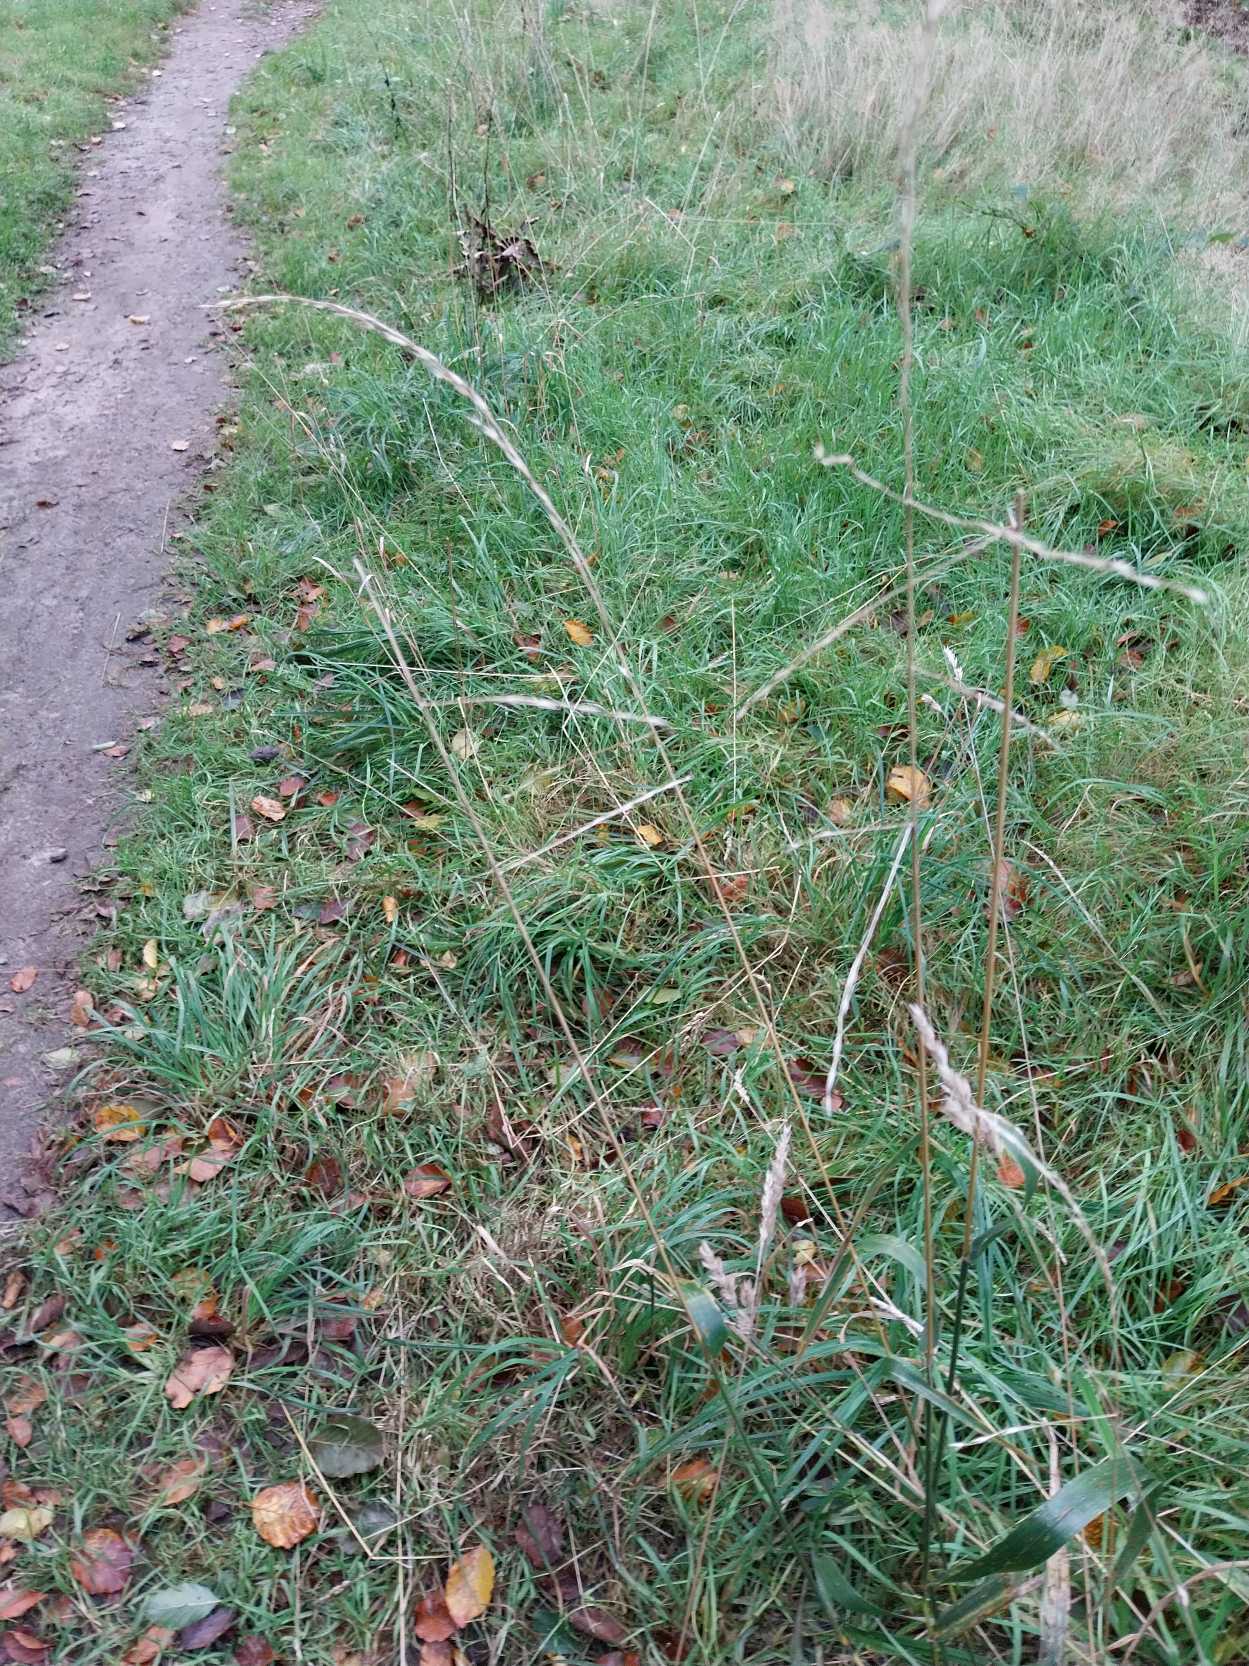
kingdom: Plantae
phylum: Tracheophyta
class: Liliopsida
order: Poales
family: Poaceae
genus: Lolium
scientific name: Lolium giganteum
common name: Kæmpe-svingel
